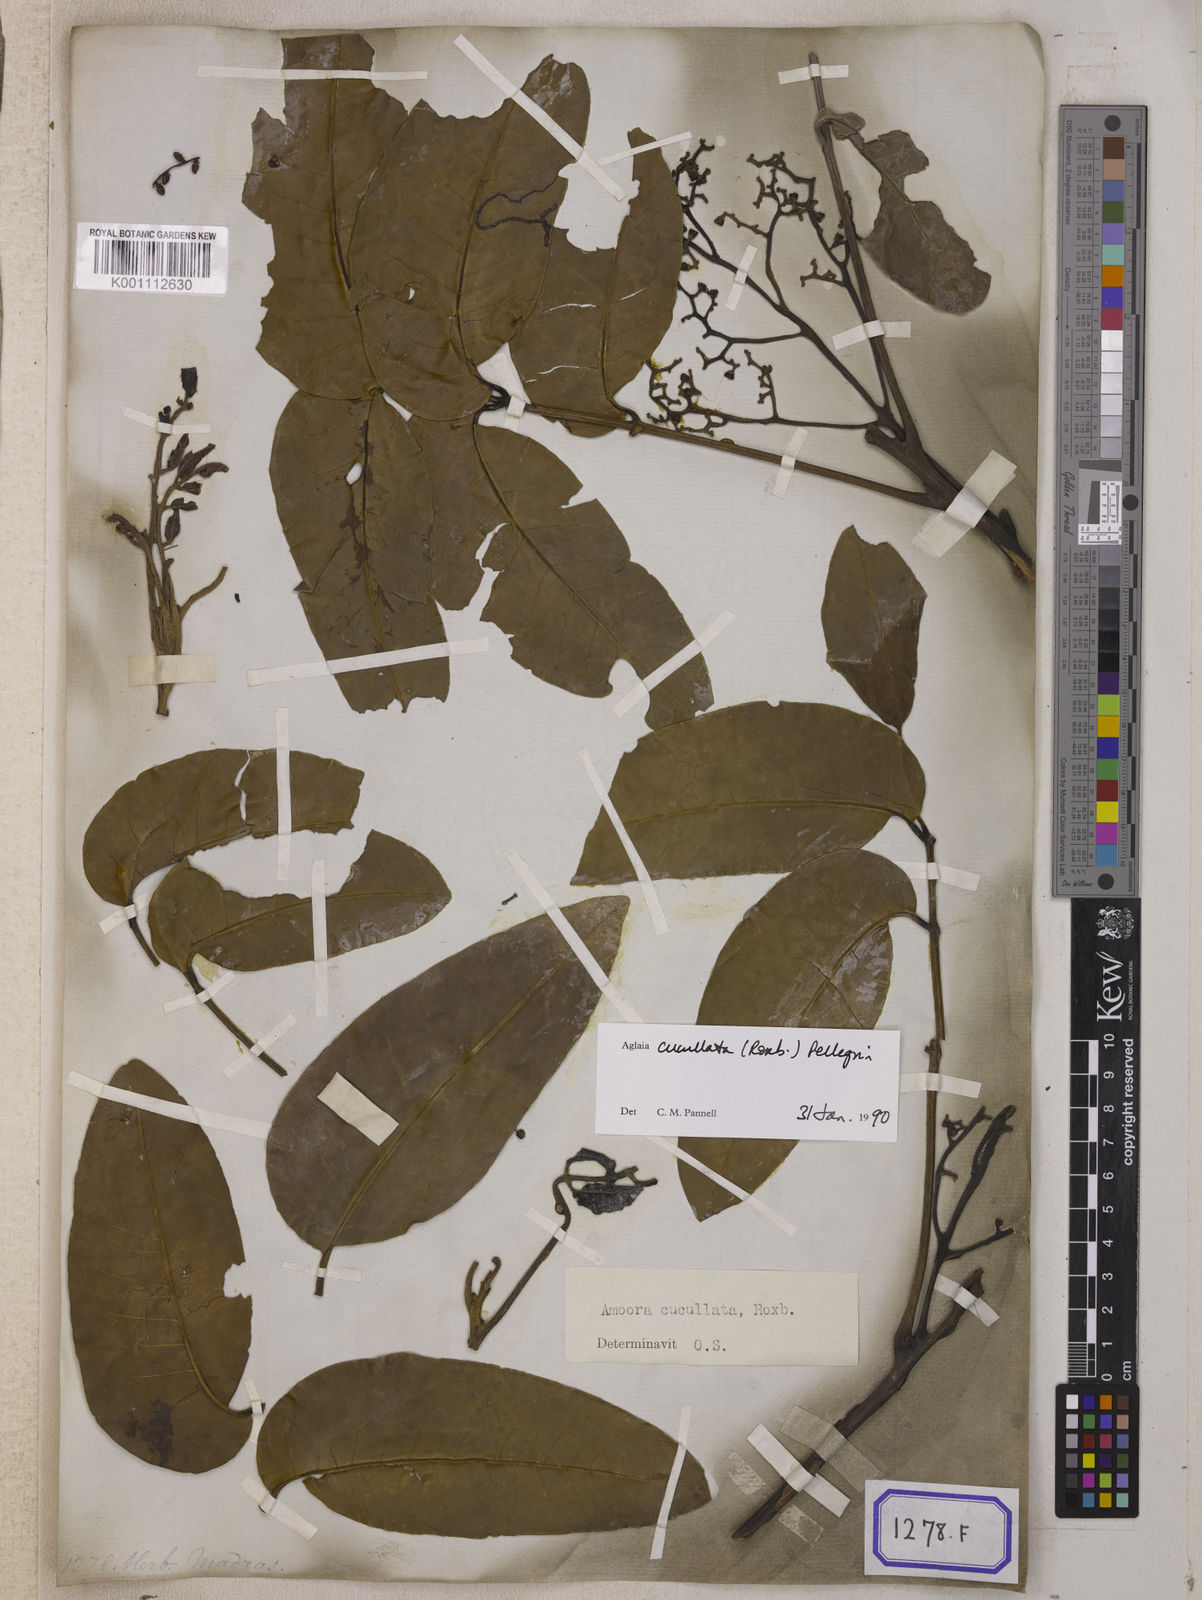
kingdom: Plantae
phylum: Tracheophyta
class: Magnoliopsida
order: Sapindales
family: Meliaceae
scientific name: Meliaceae
